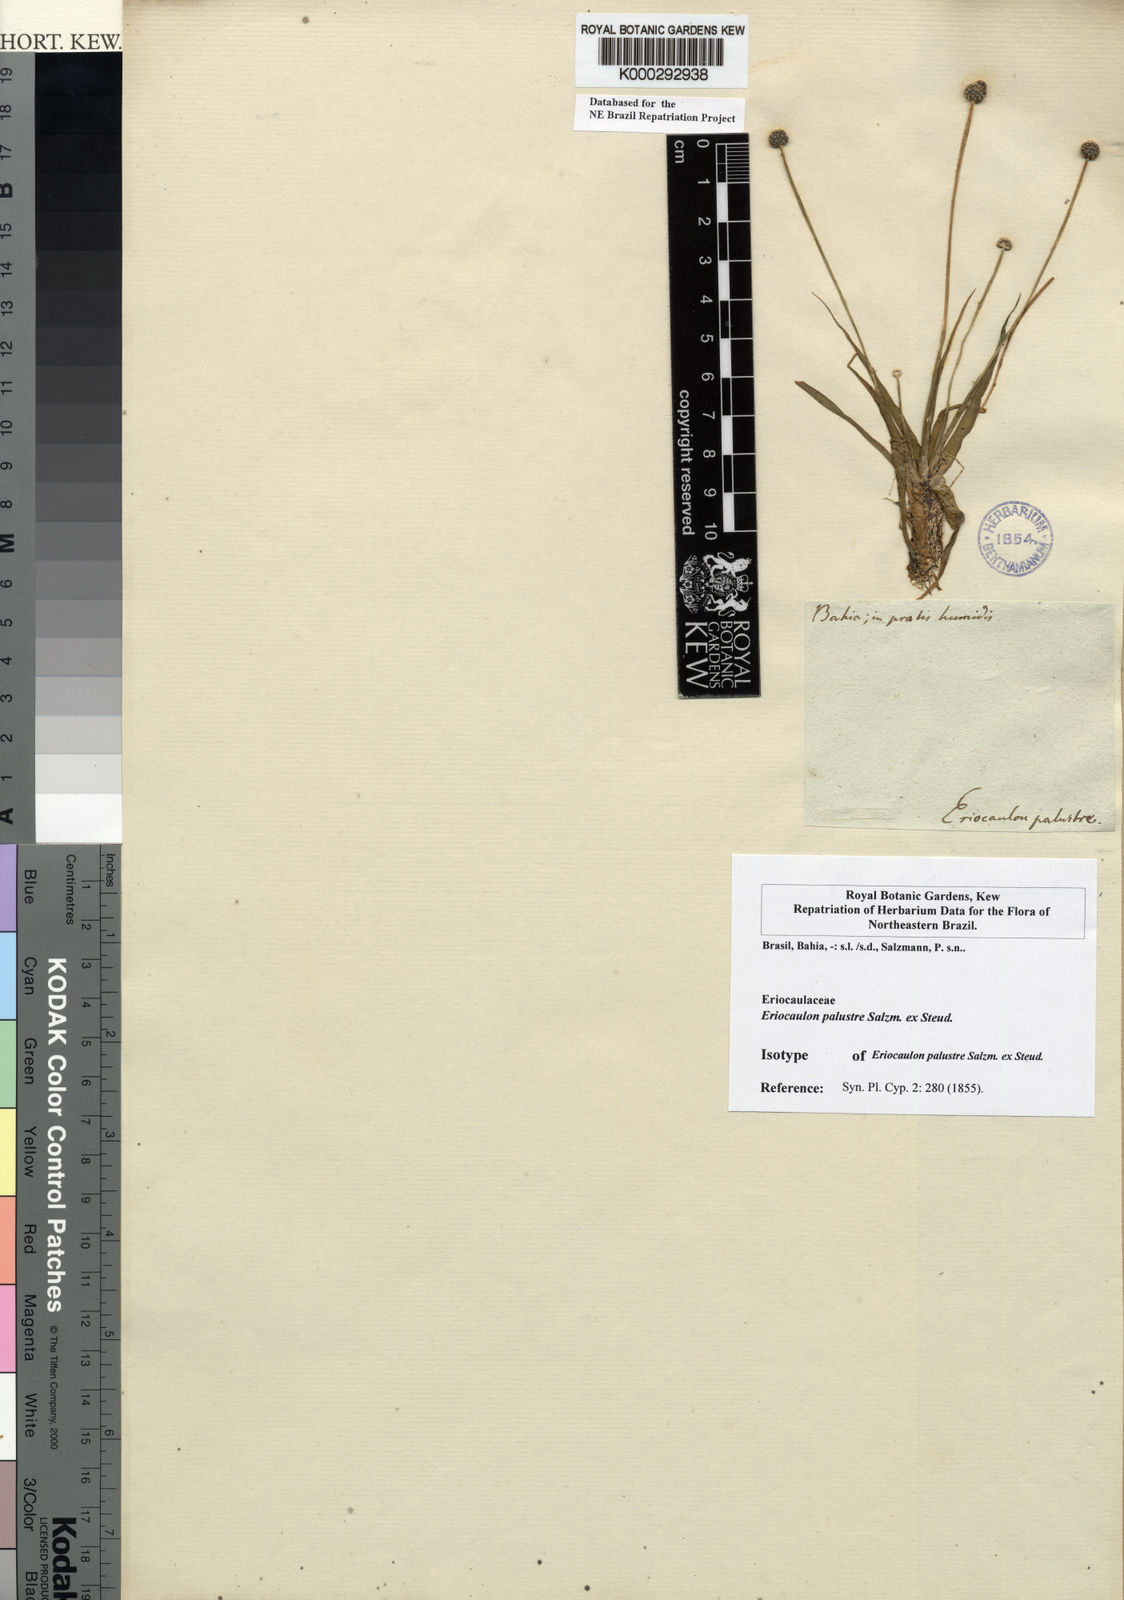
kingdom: Plantae
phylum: Tracheophyta
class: Liliopsida
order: Poales
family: Eriocaulaceae
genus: Eriocaulon
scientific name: Eriocaulon palustre
